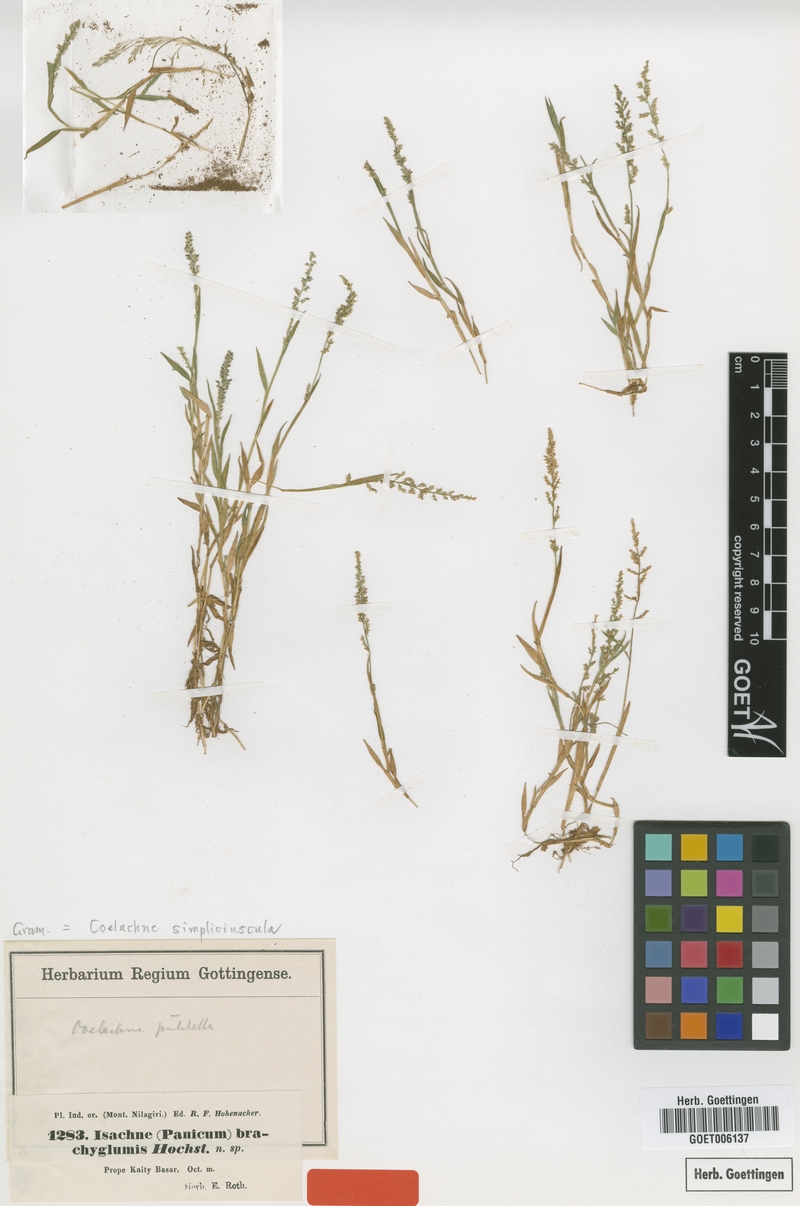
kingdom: Plantae
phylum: Tracheophyta
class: Liliopsida
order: Poales
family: Poaceae
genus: Coelachne
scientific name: Coelachne simpliciuscula
